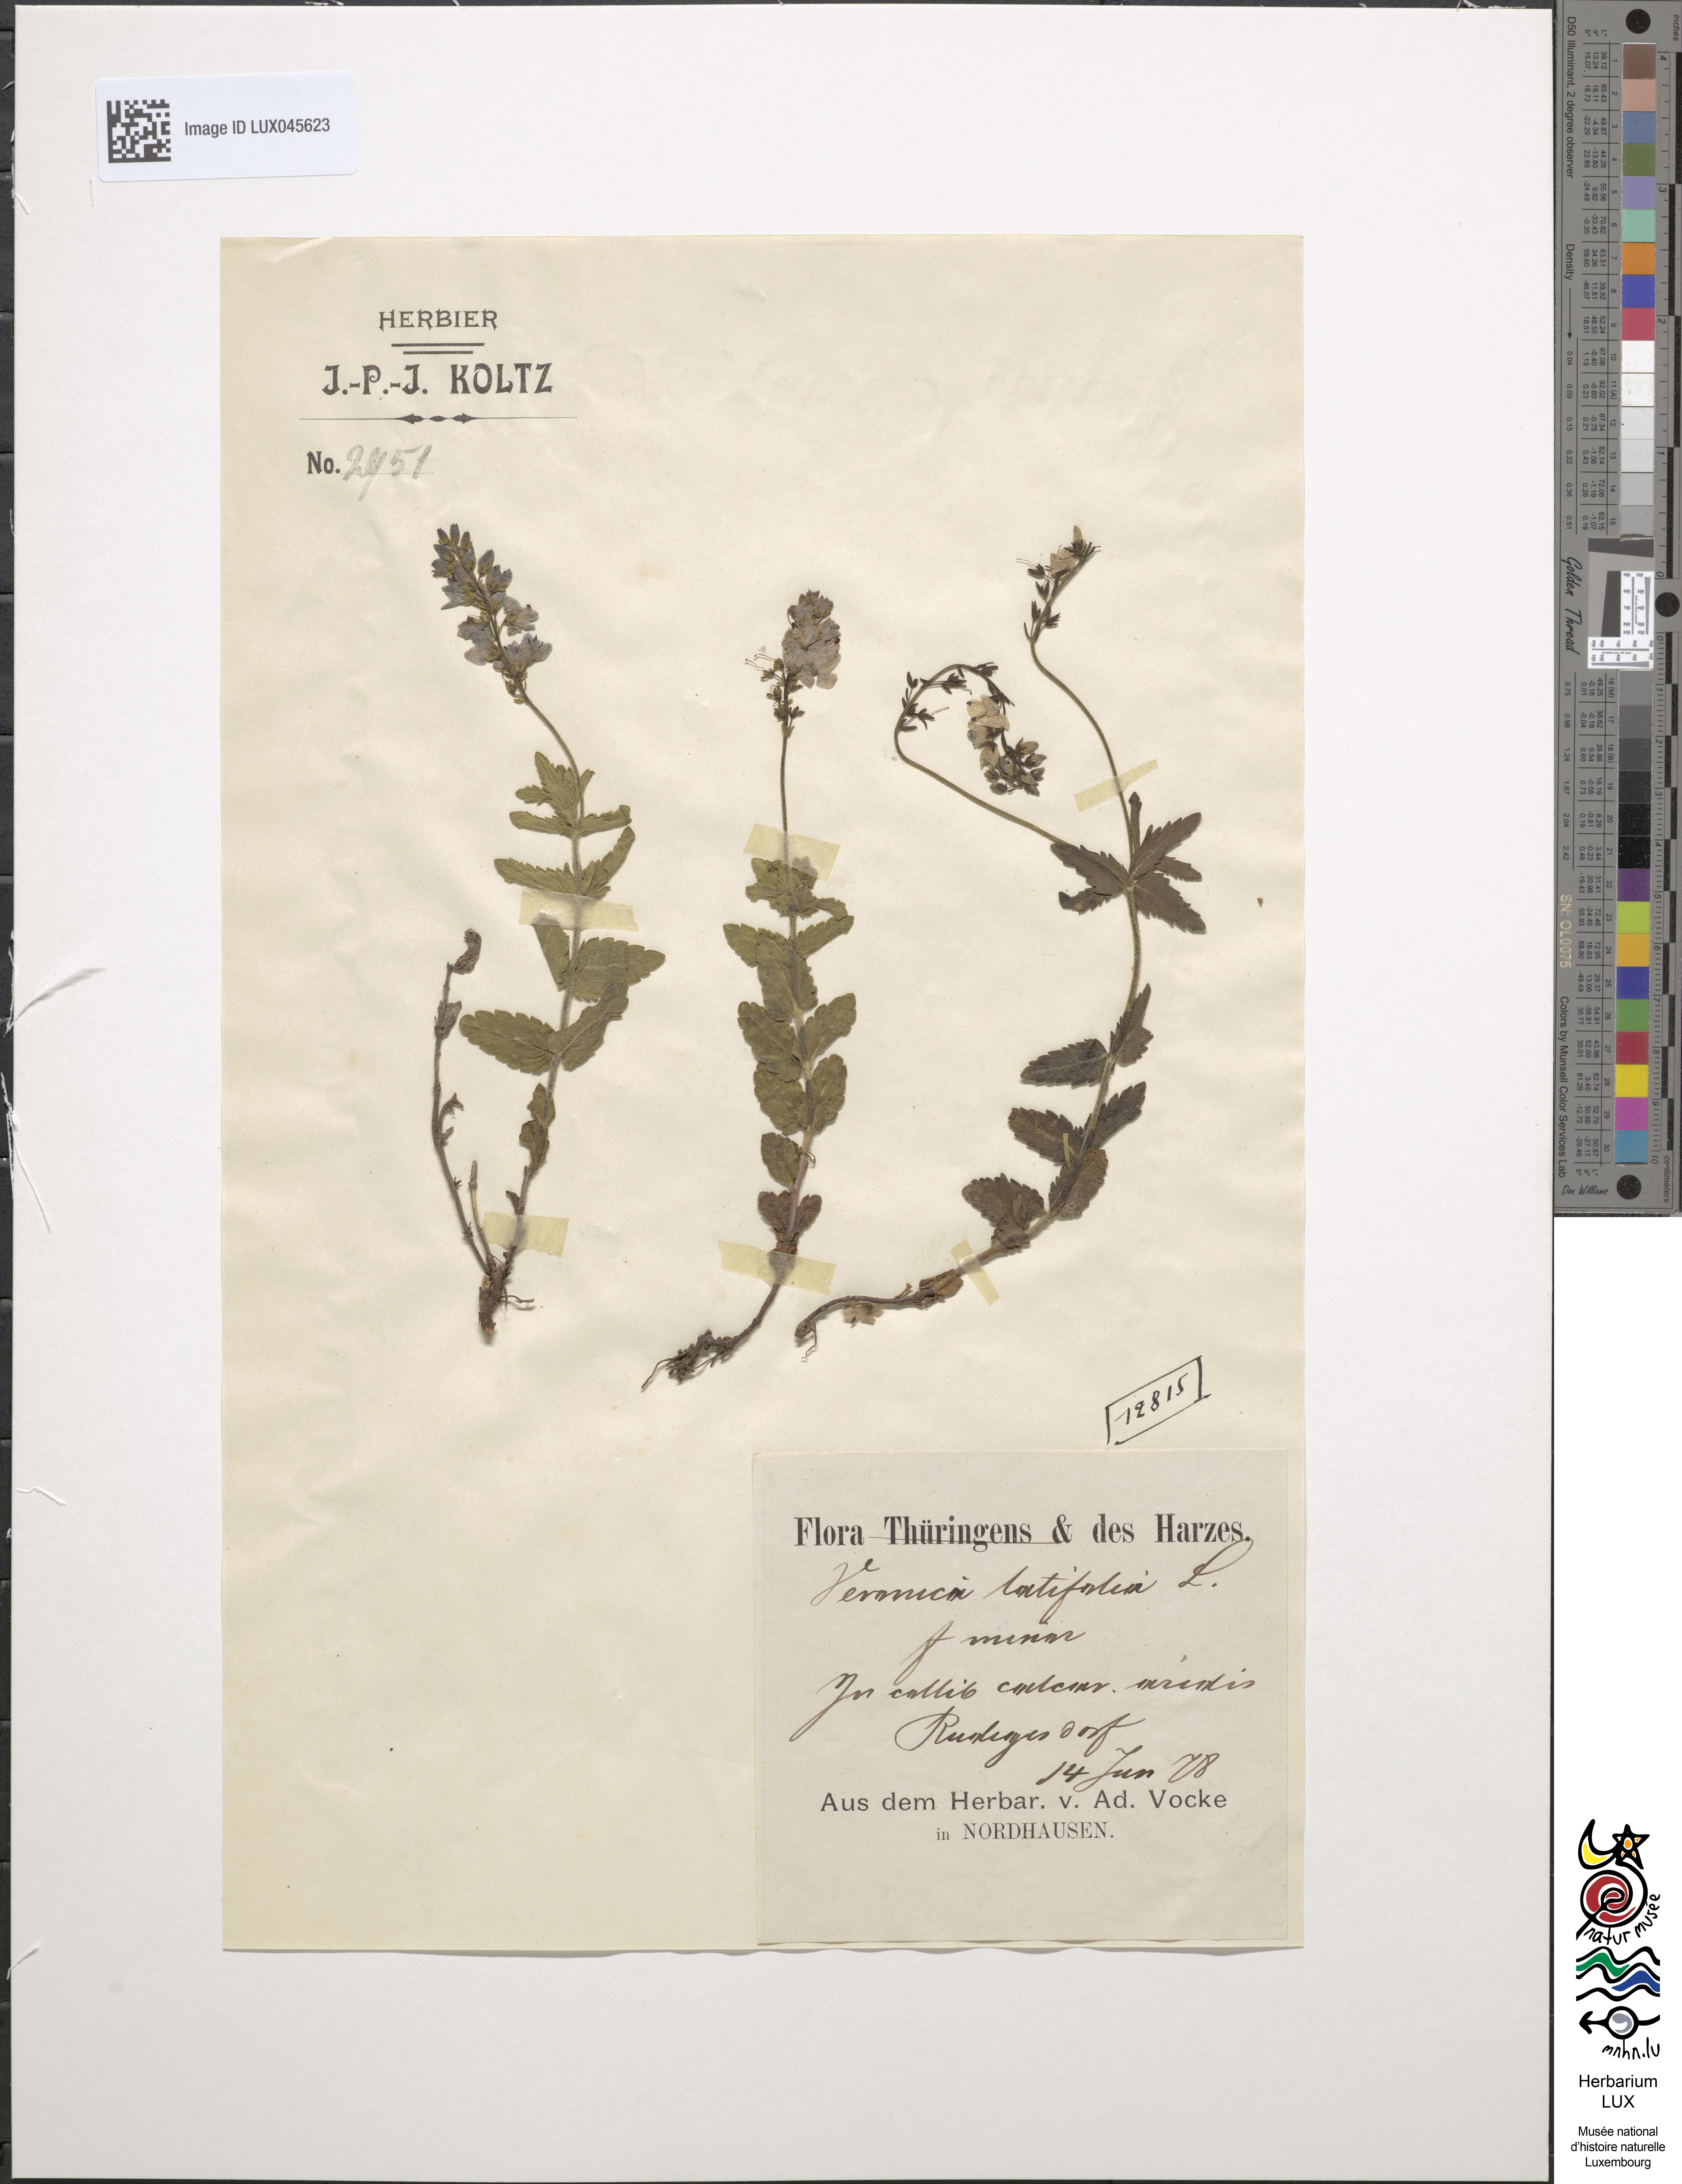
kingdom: Plantae
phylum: Tracheophyta
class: Magnoliopsida
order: Lamiales
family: Plantaginaceae
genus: Veronica
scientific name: Veronica urticifolia
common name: Nettle-leaf speedwell
